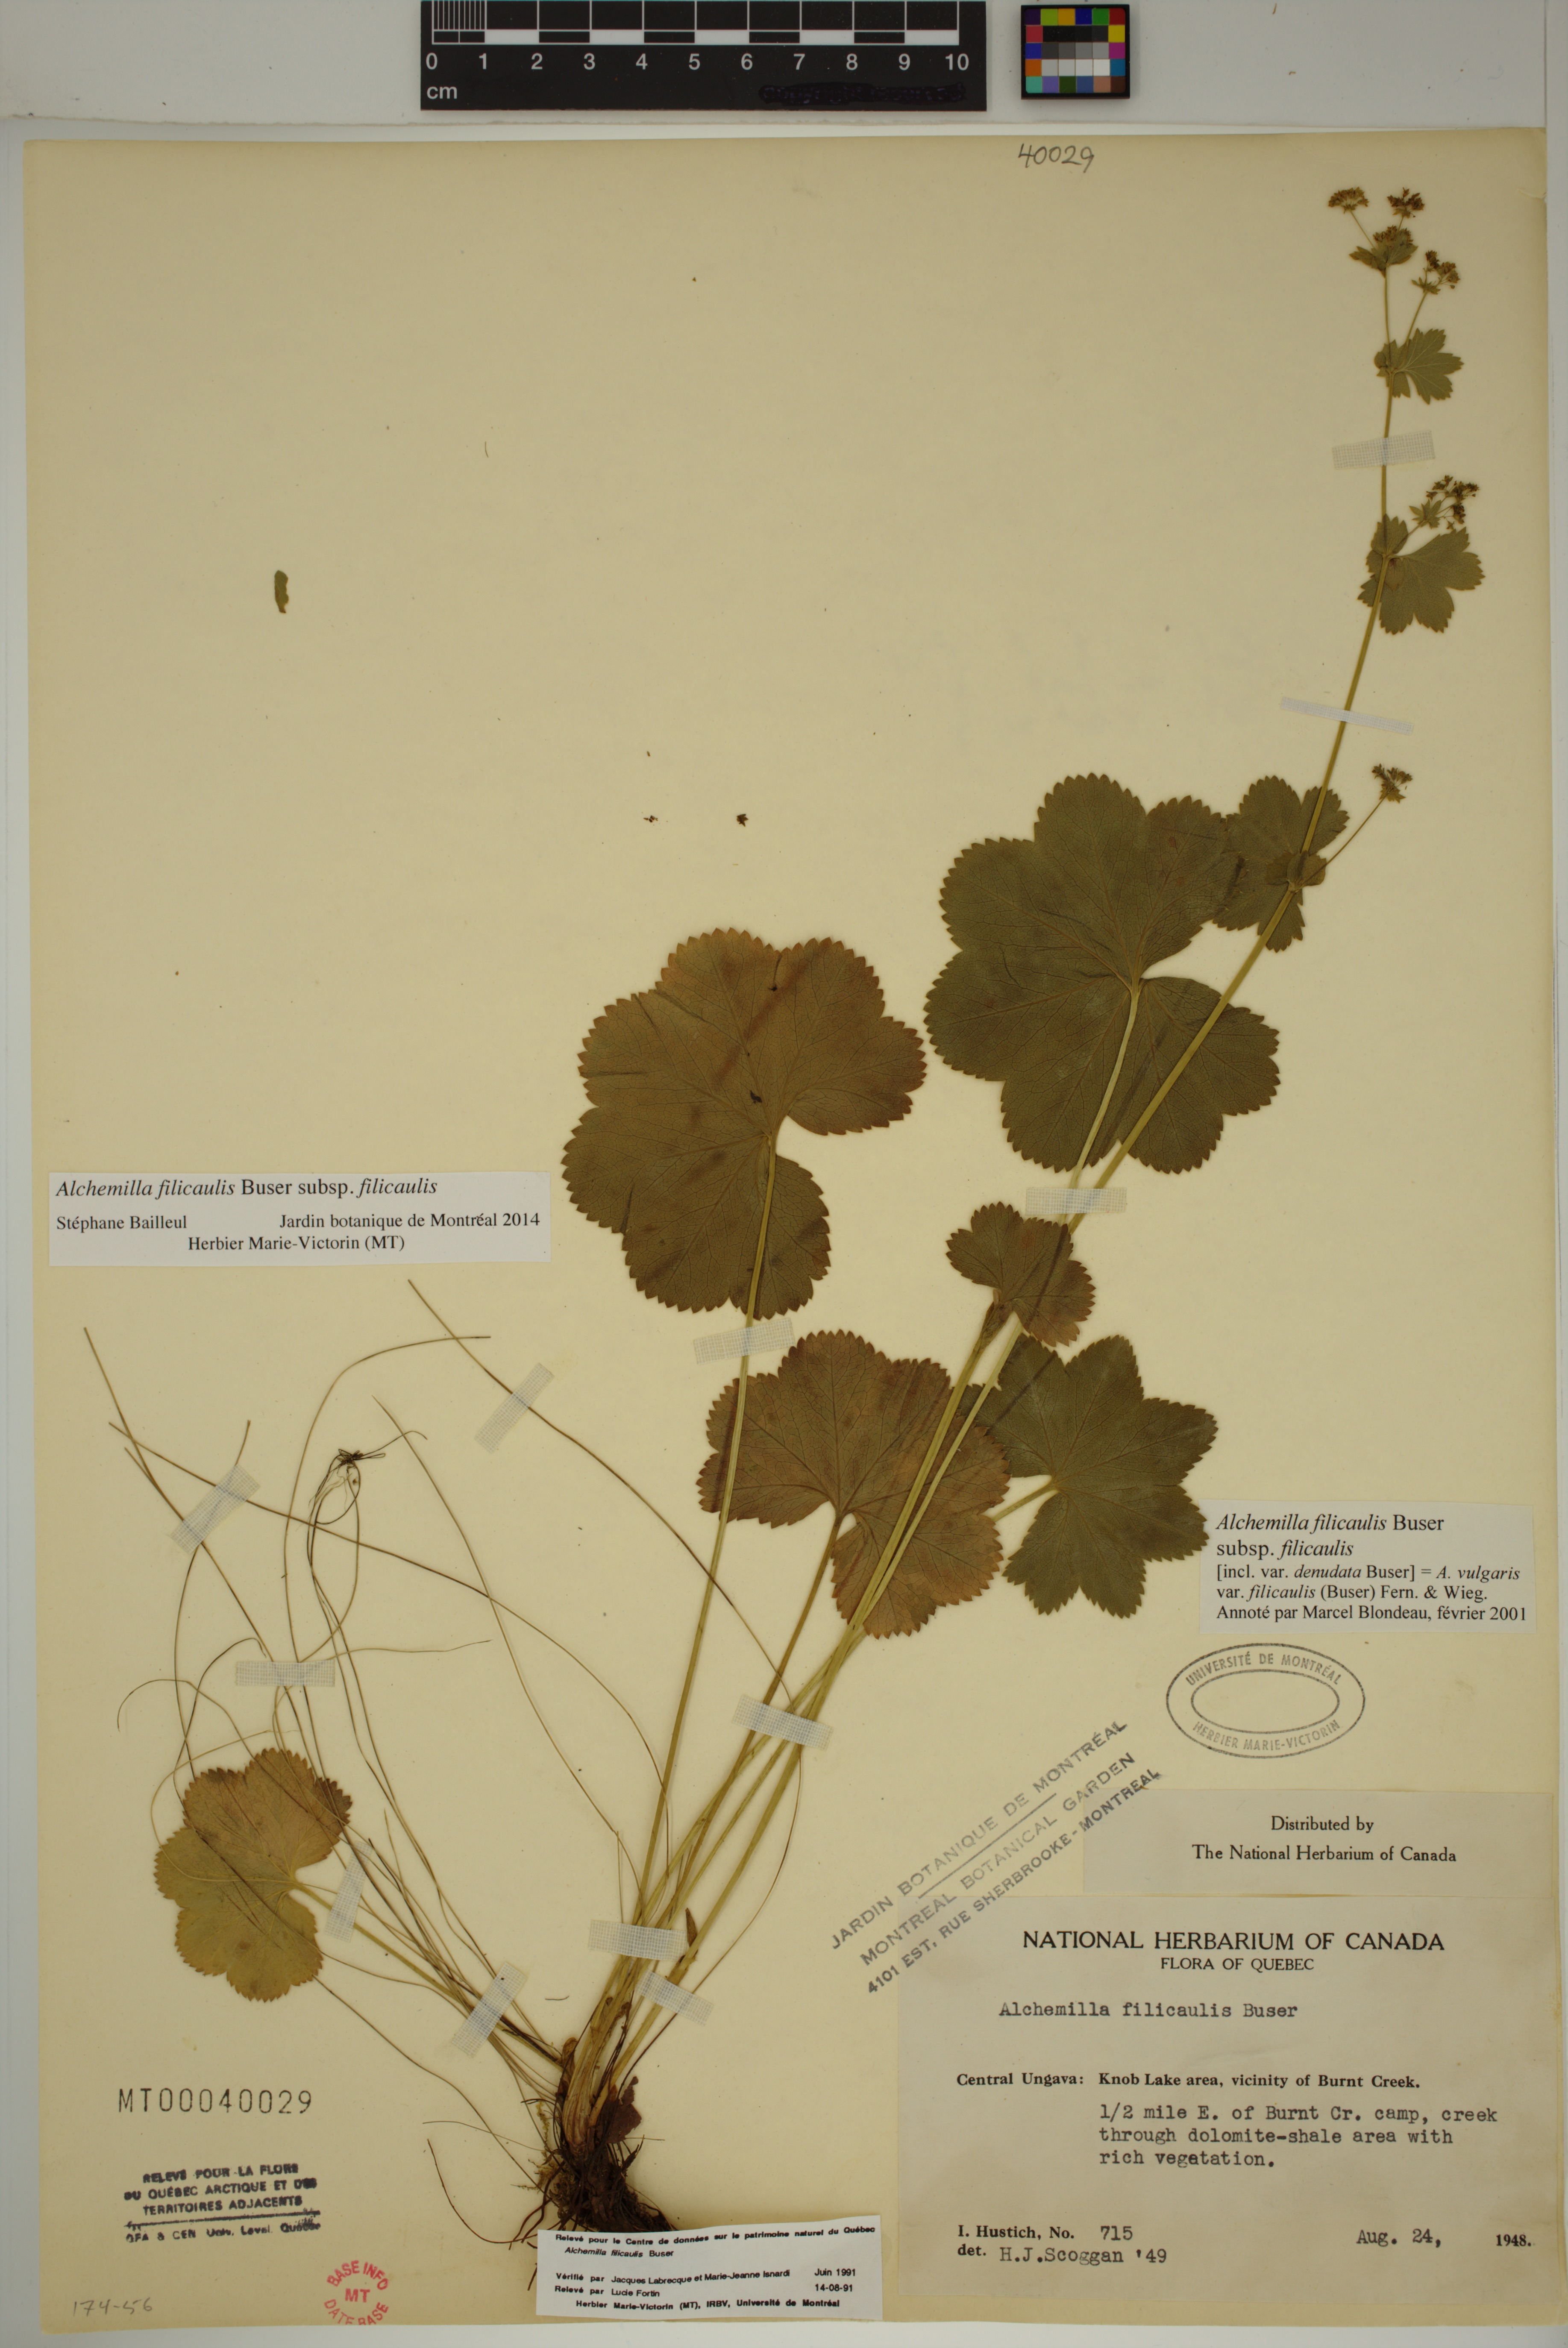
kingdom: Plantae
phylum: Tracheophyta
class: Magnoliopsida
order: Rosales
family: Rosaceae
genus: Alchemilla
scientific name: Alchemilla vulgaris
